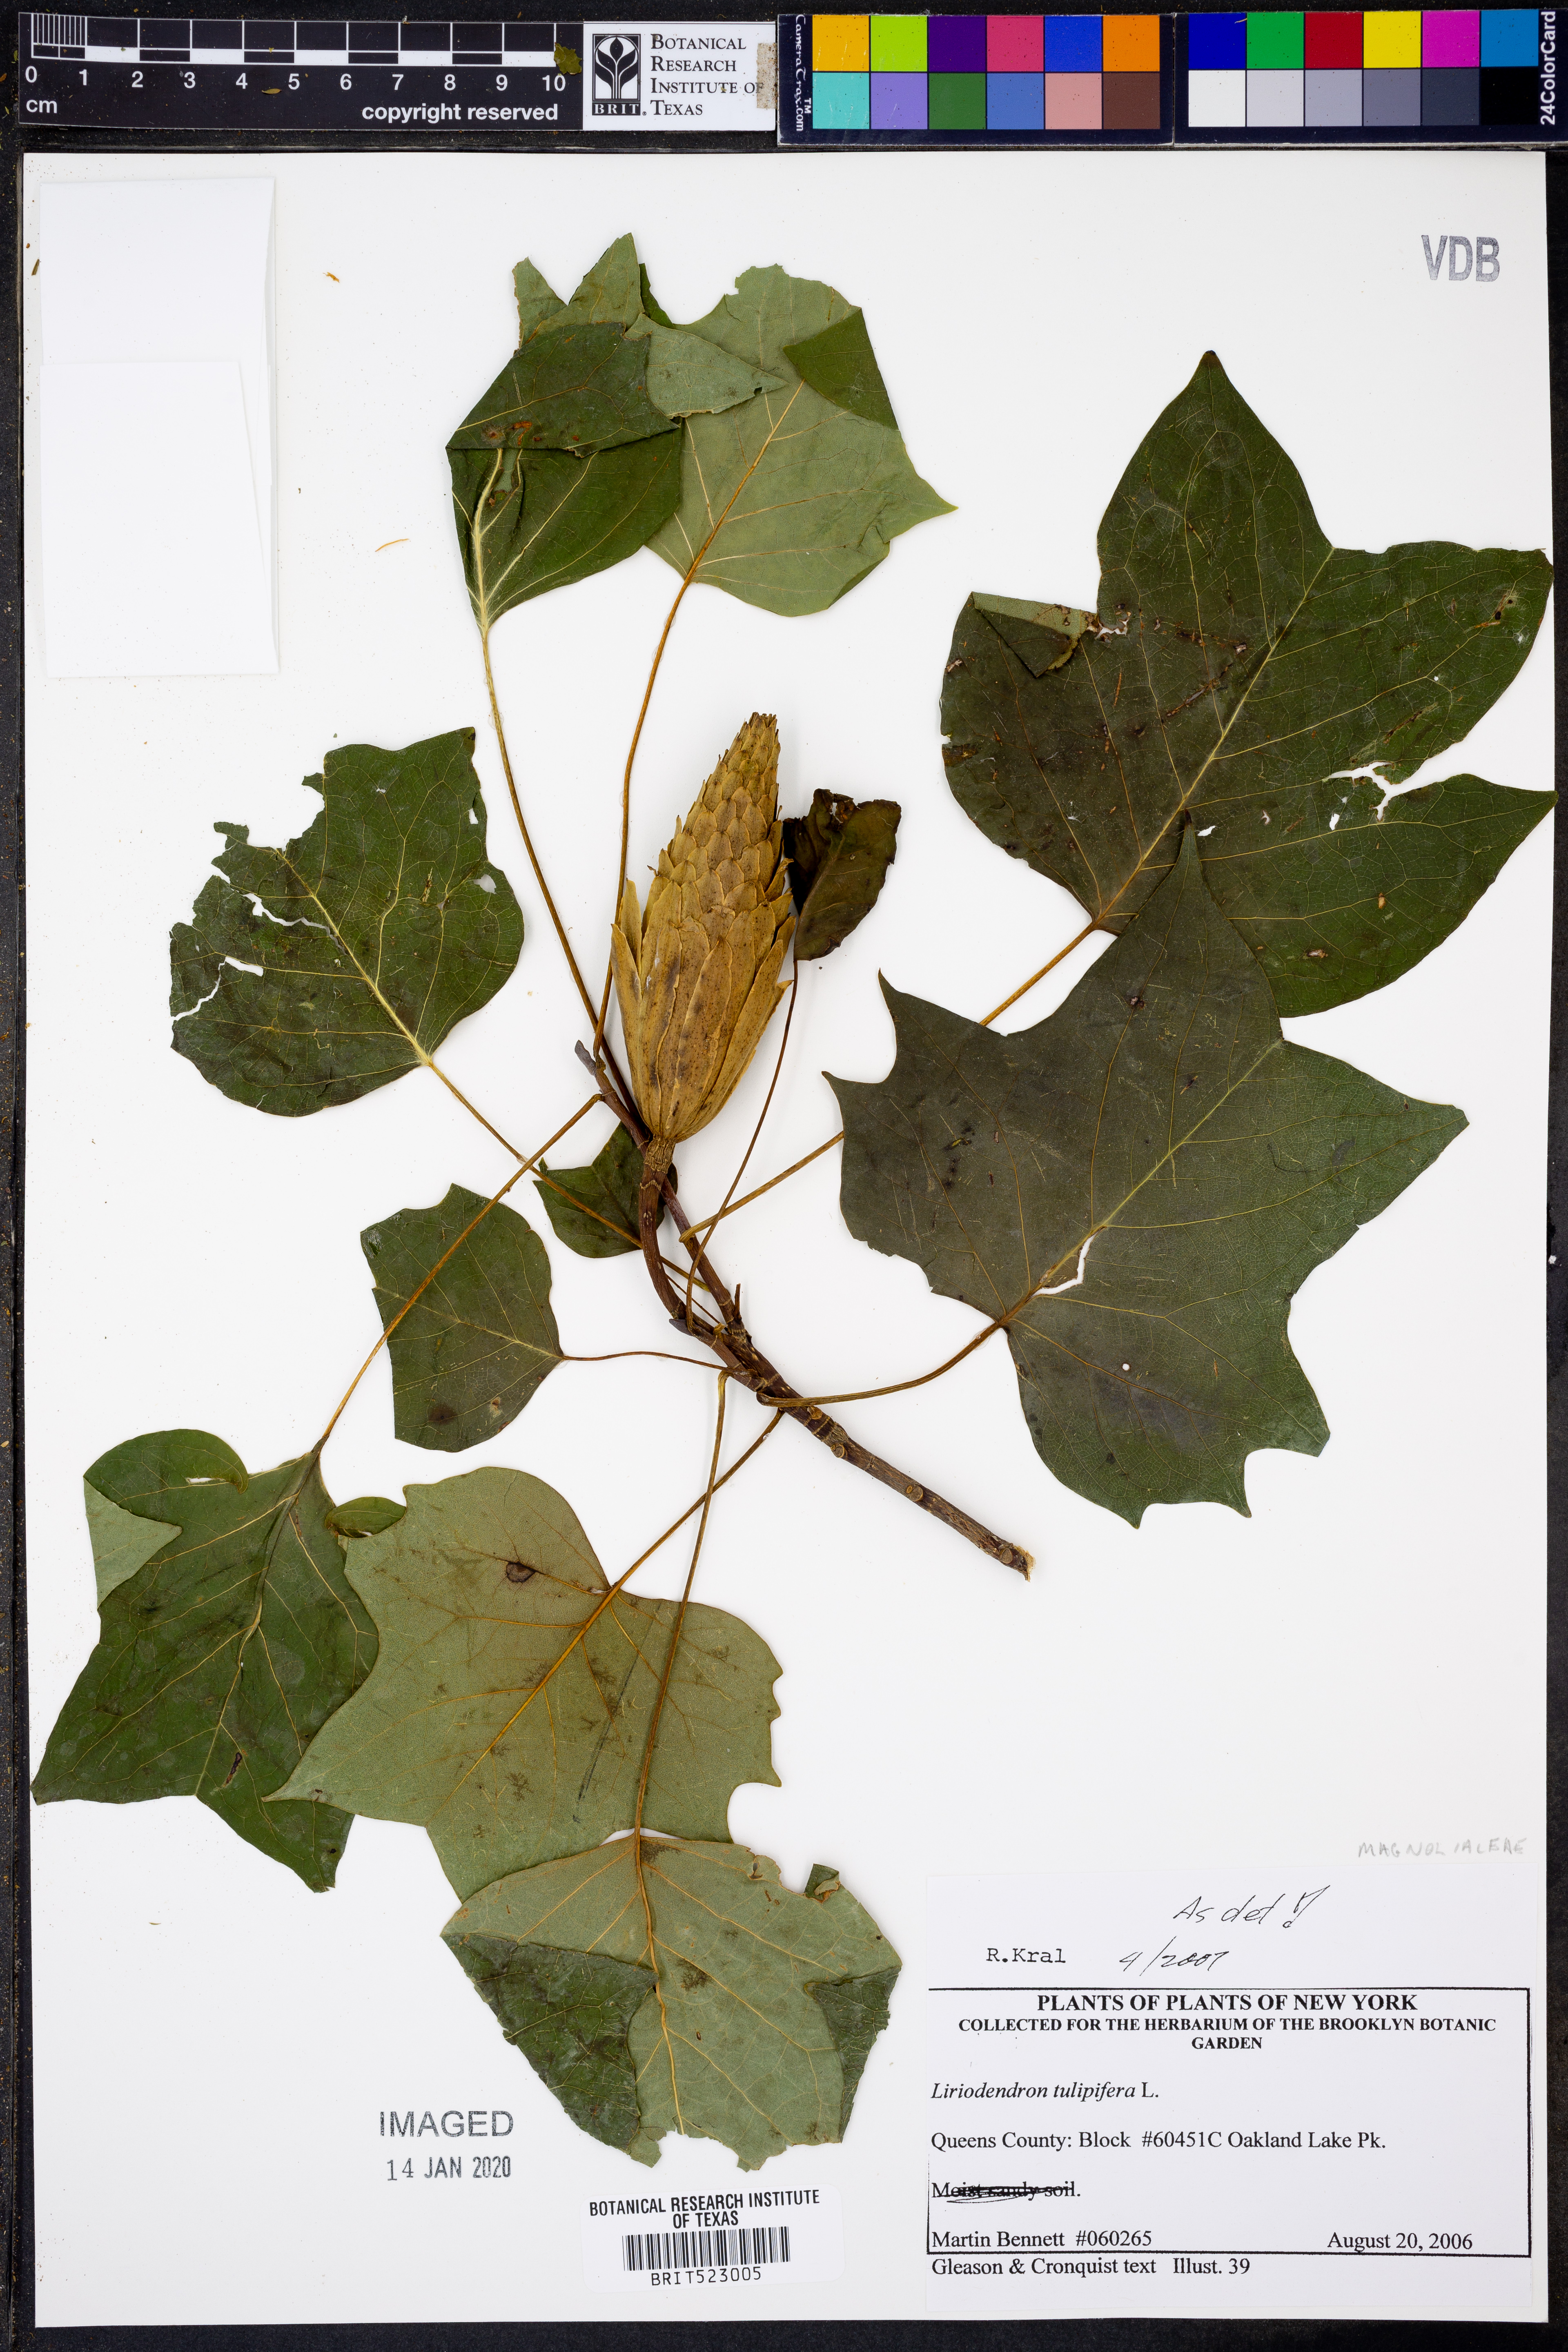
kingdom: Plantae
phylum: Tracheophyta
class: Magnoliopsida
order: Magnoliales
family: Magnoliaceae
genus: Liriodendron
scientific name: Liriodendron tulipifera
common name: Tulip tree
